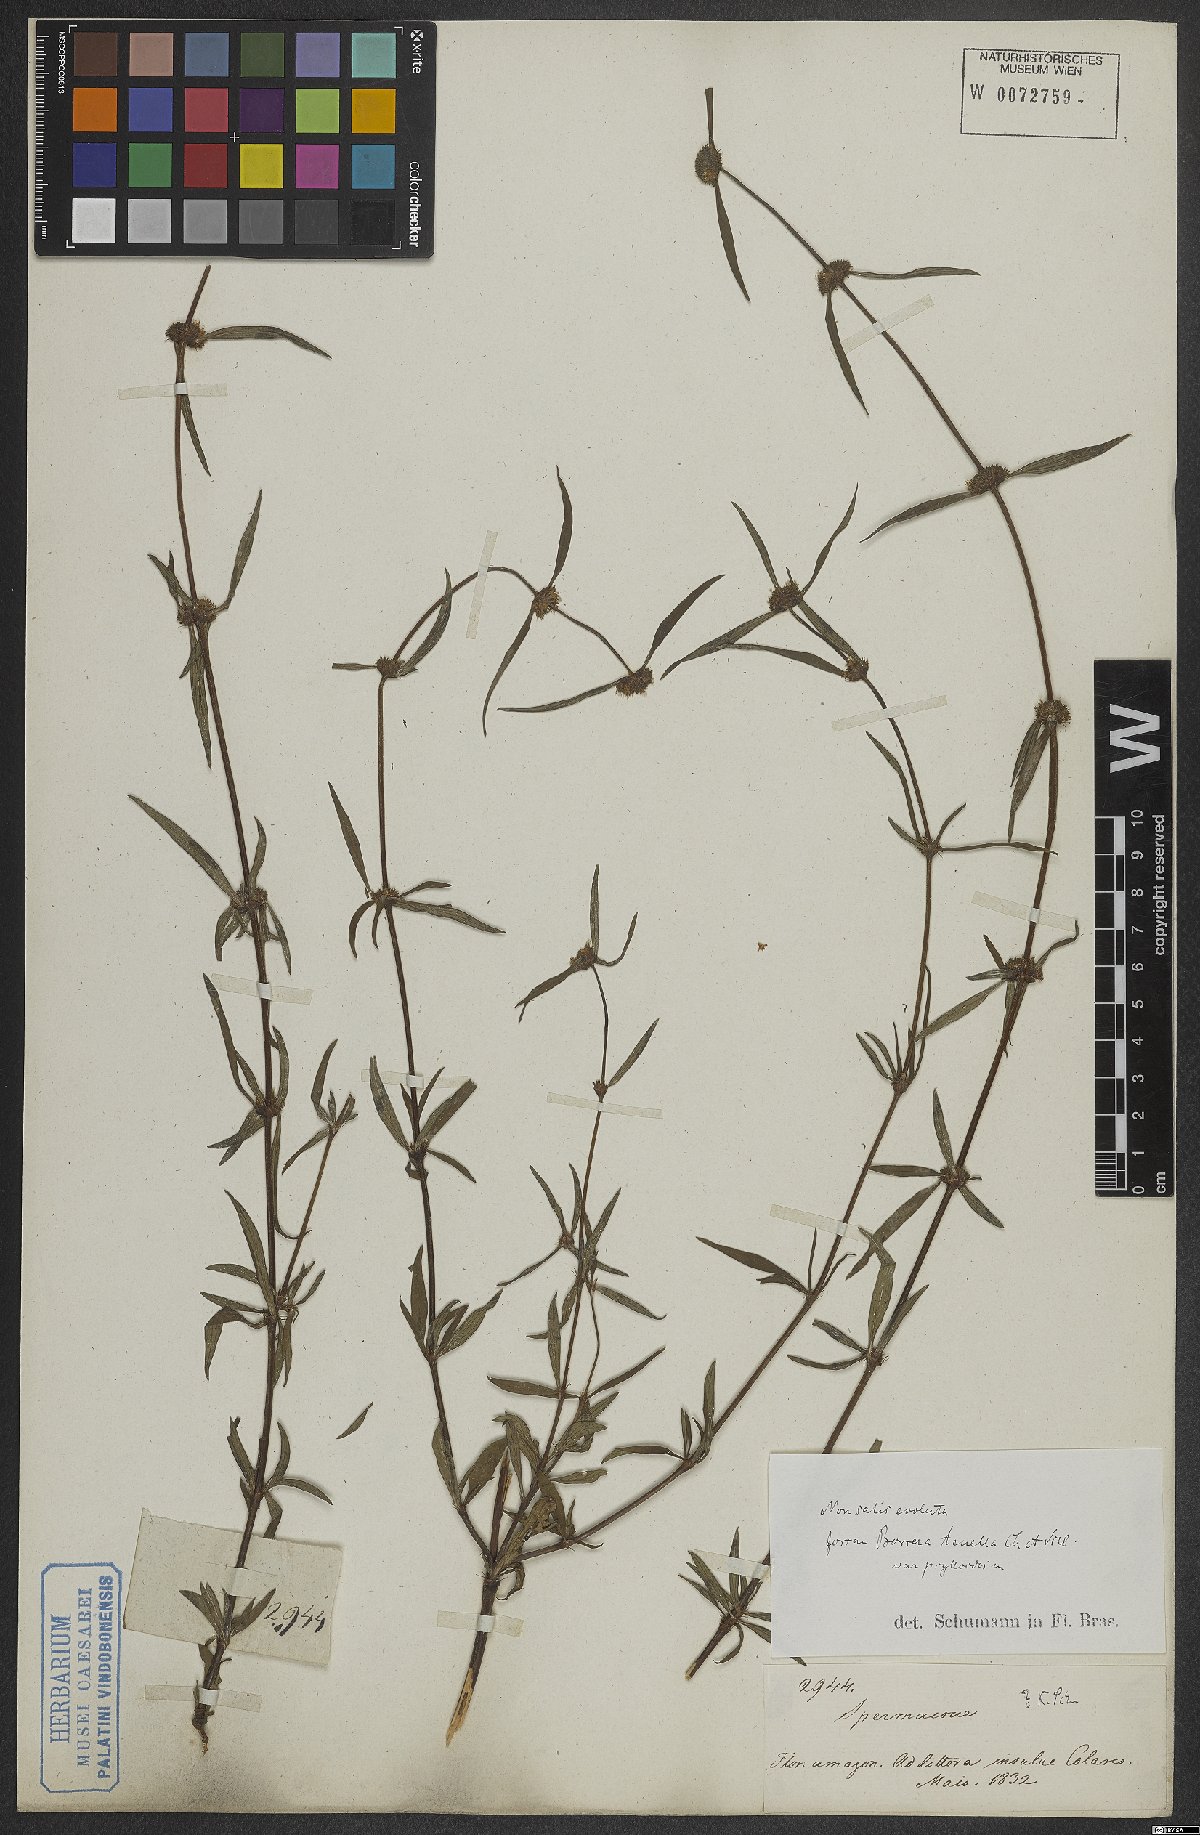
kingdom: Plantae
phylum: Tracheophyta
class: Magnoliopsida
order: Gentianales
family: Rubiaceae
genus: Spermacoce
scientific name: Spermacoce orinocensis
